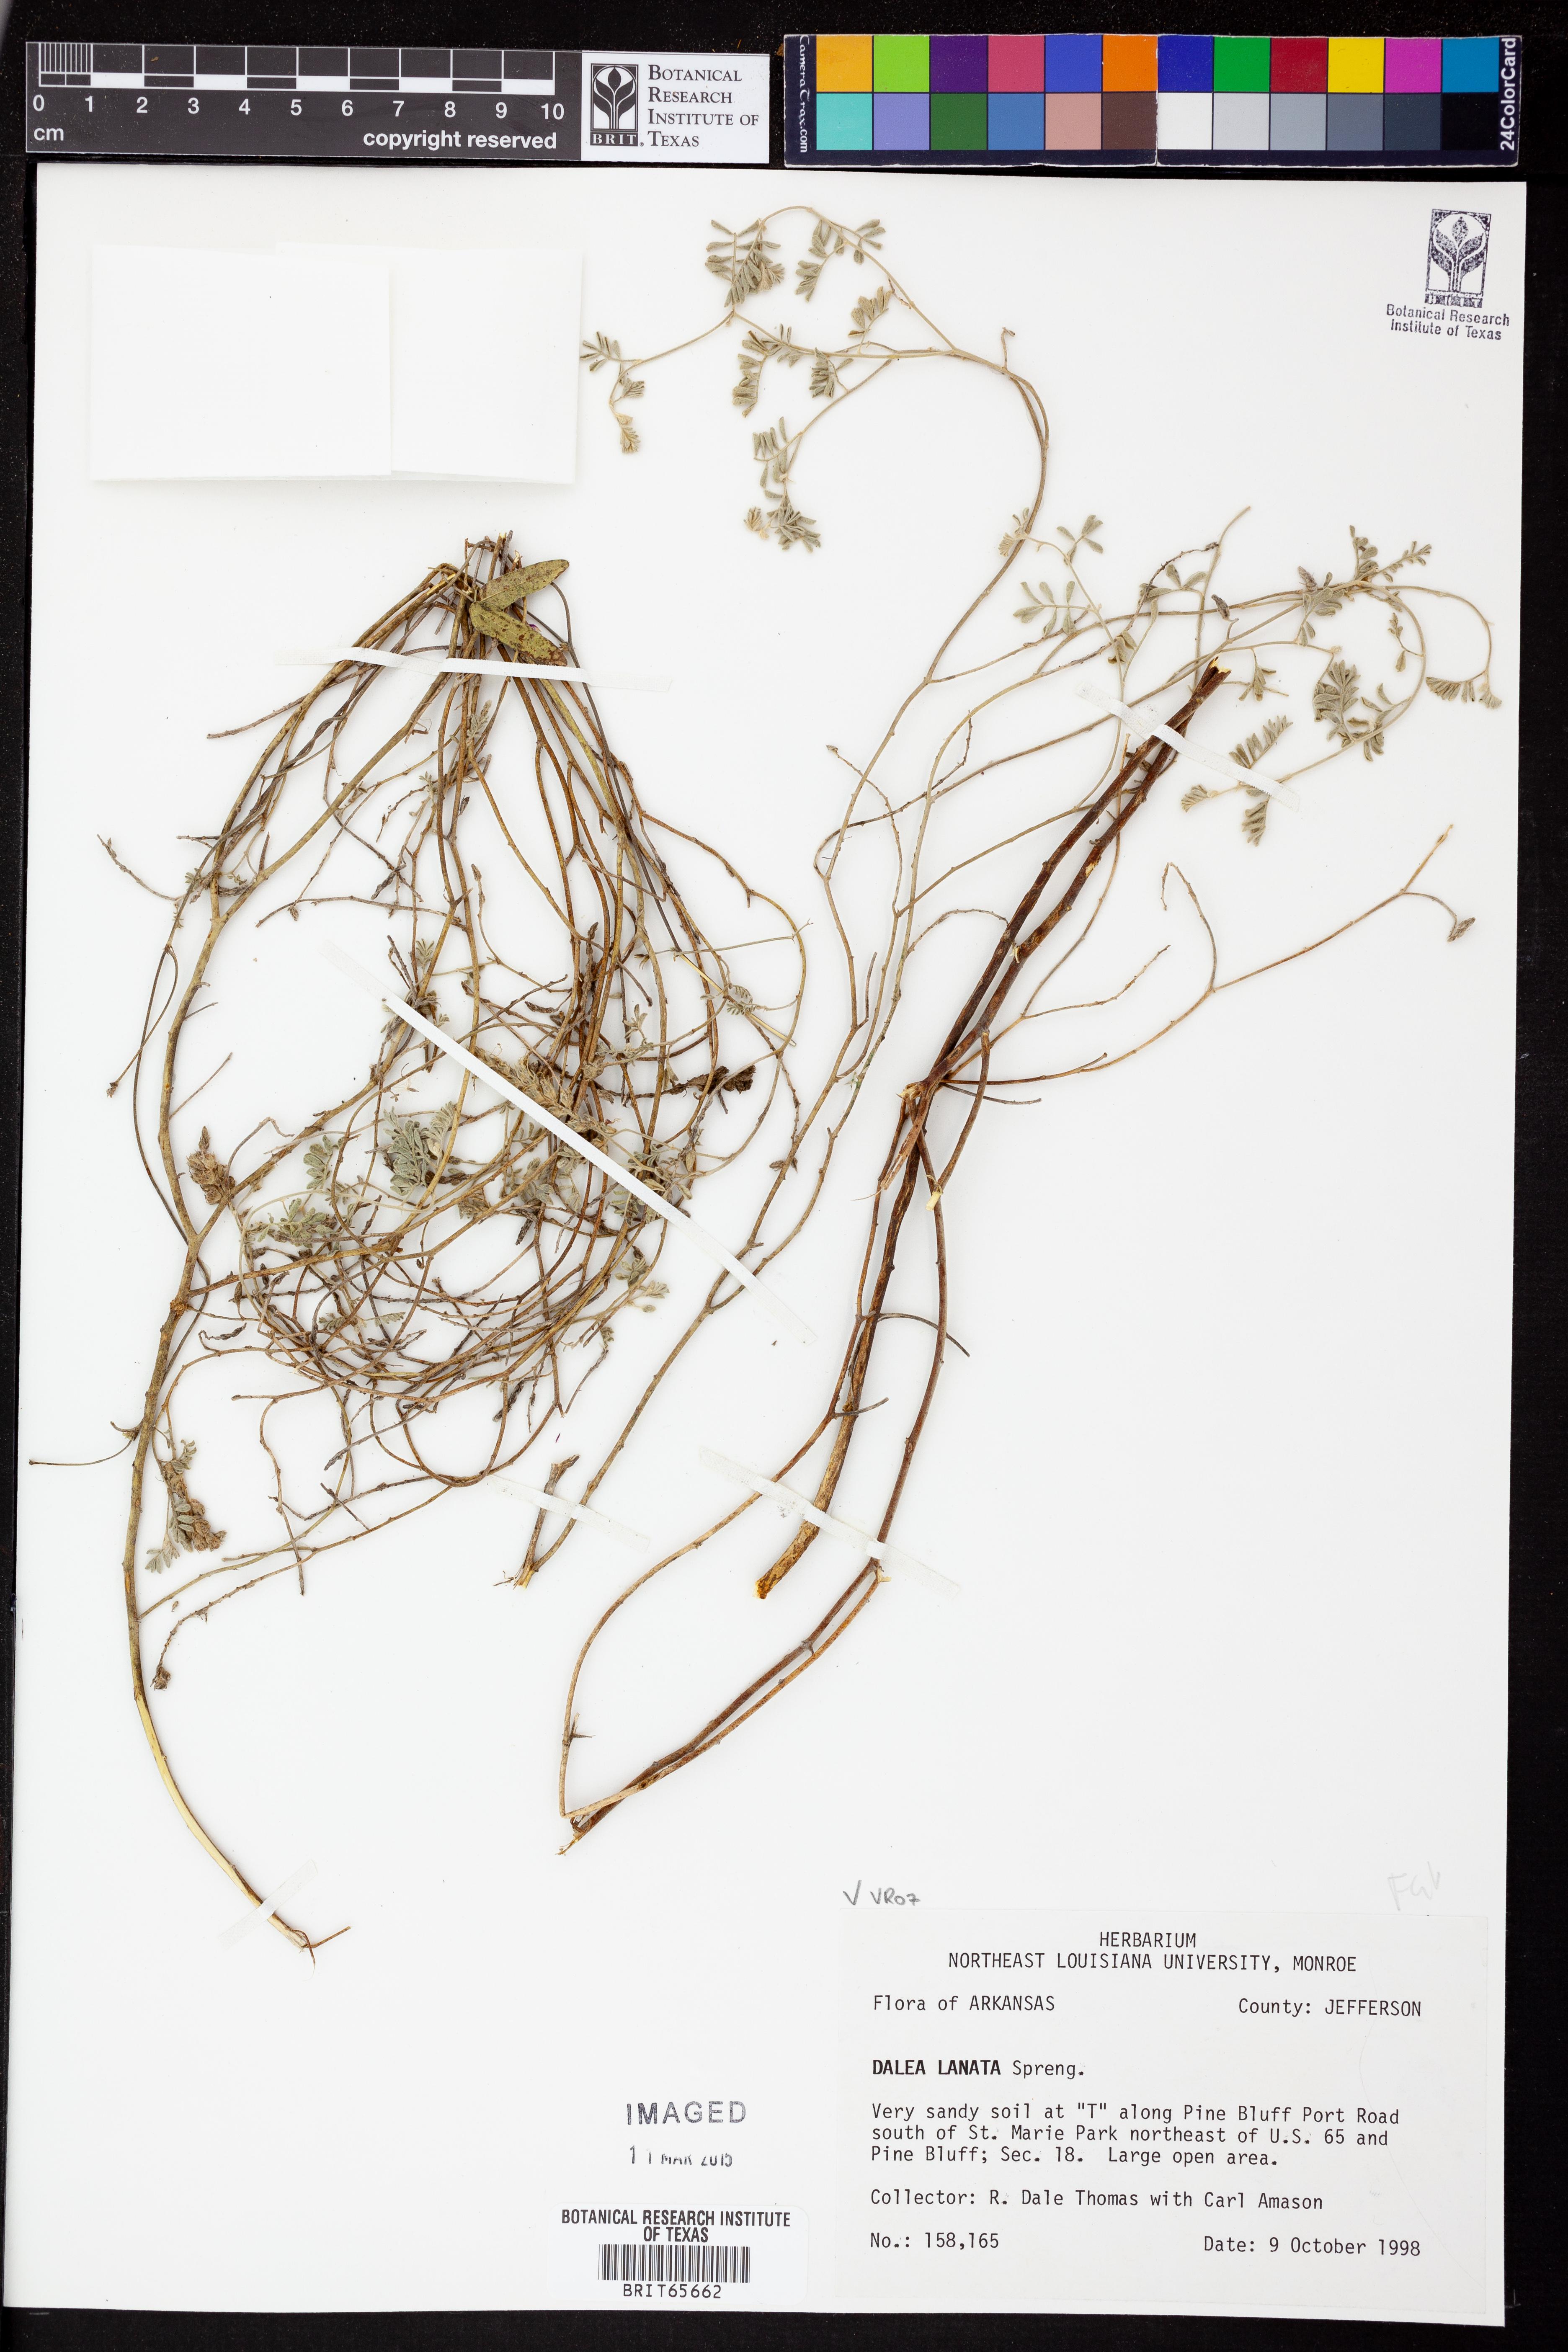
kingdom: Plantae
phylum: Tracheophyta
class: Magnoliopsida
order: Fabales
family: Fabaceae
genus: Dalea
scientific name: Dalea lanata
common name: Woolly dalea
